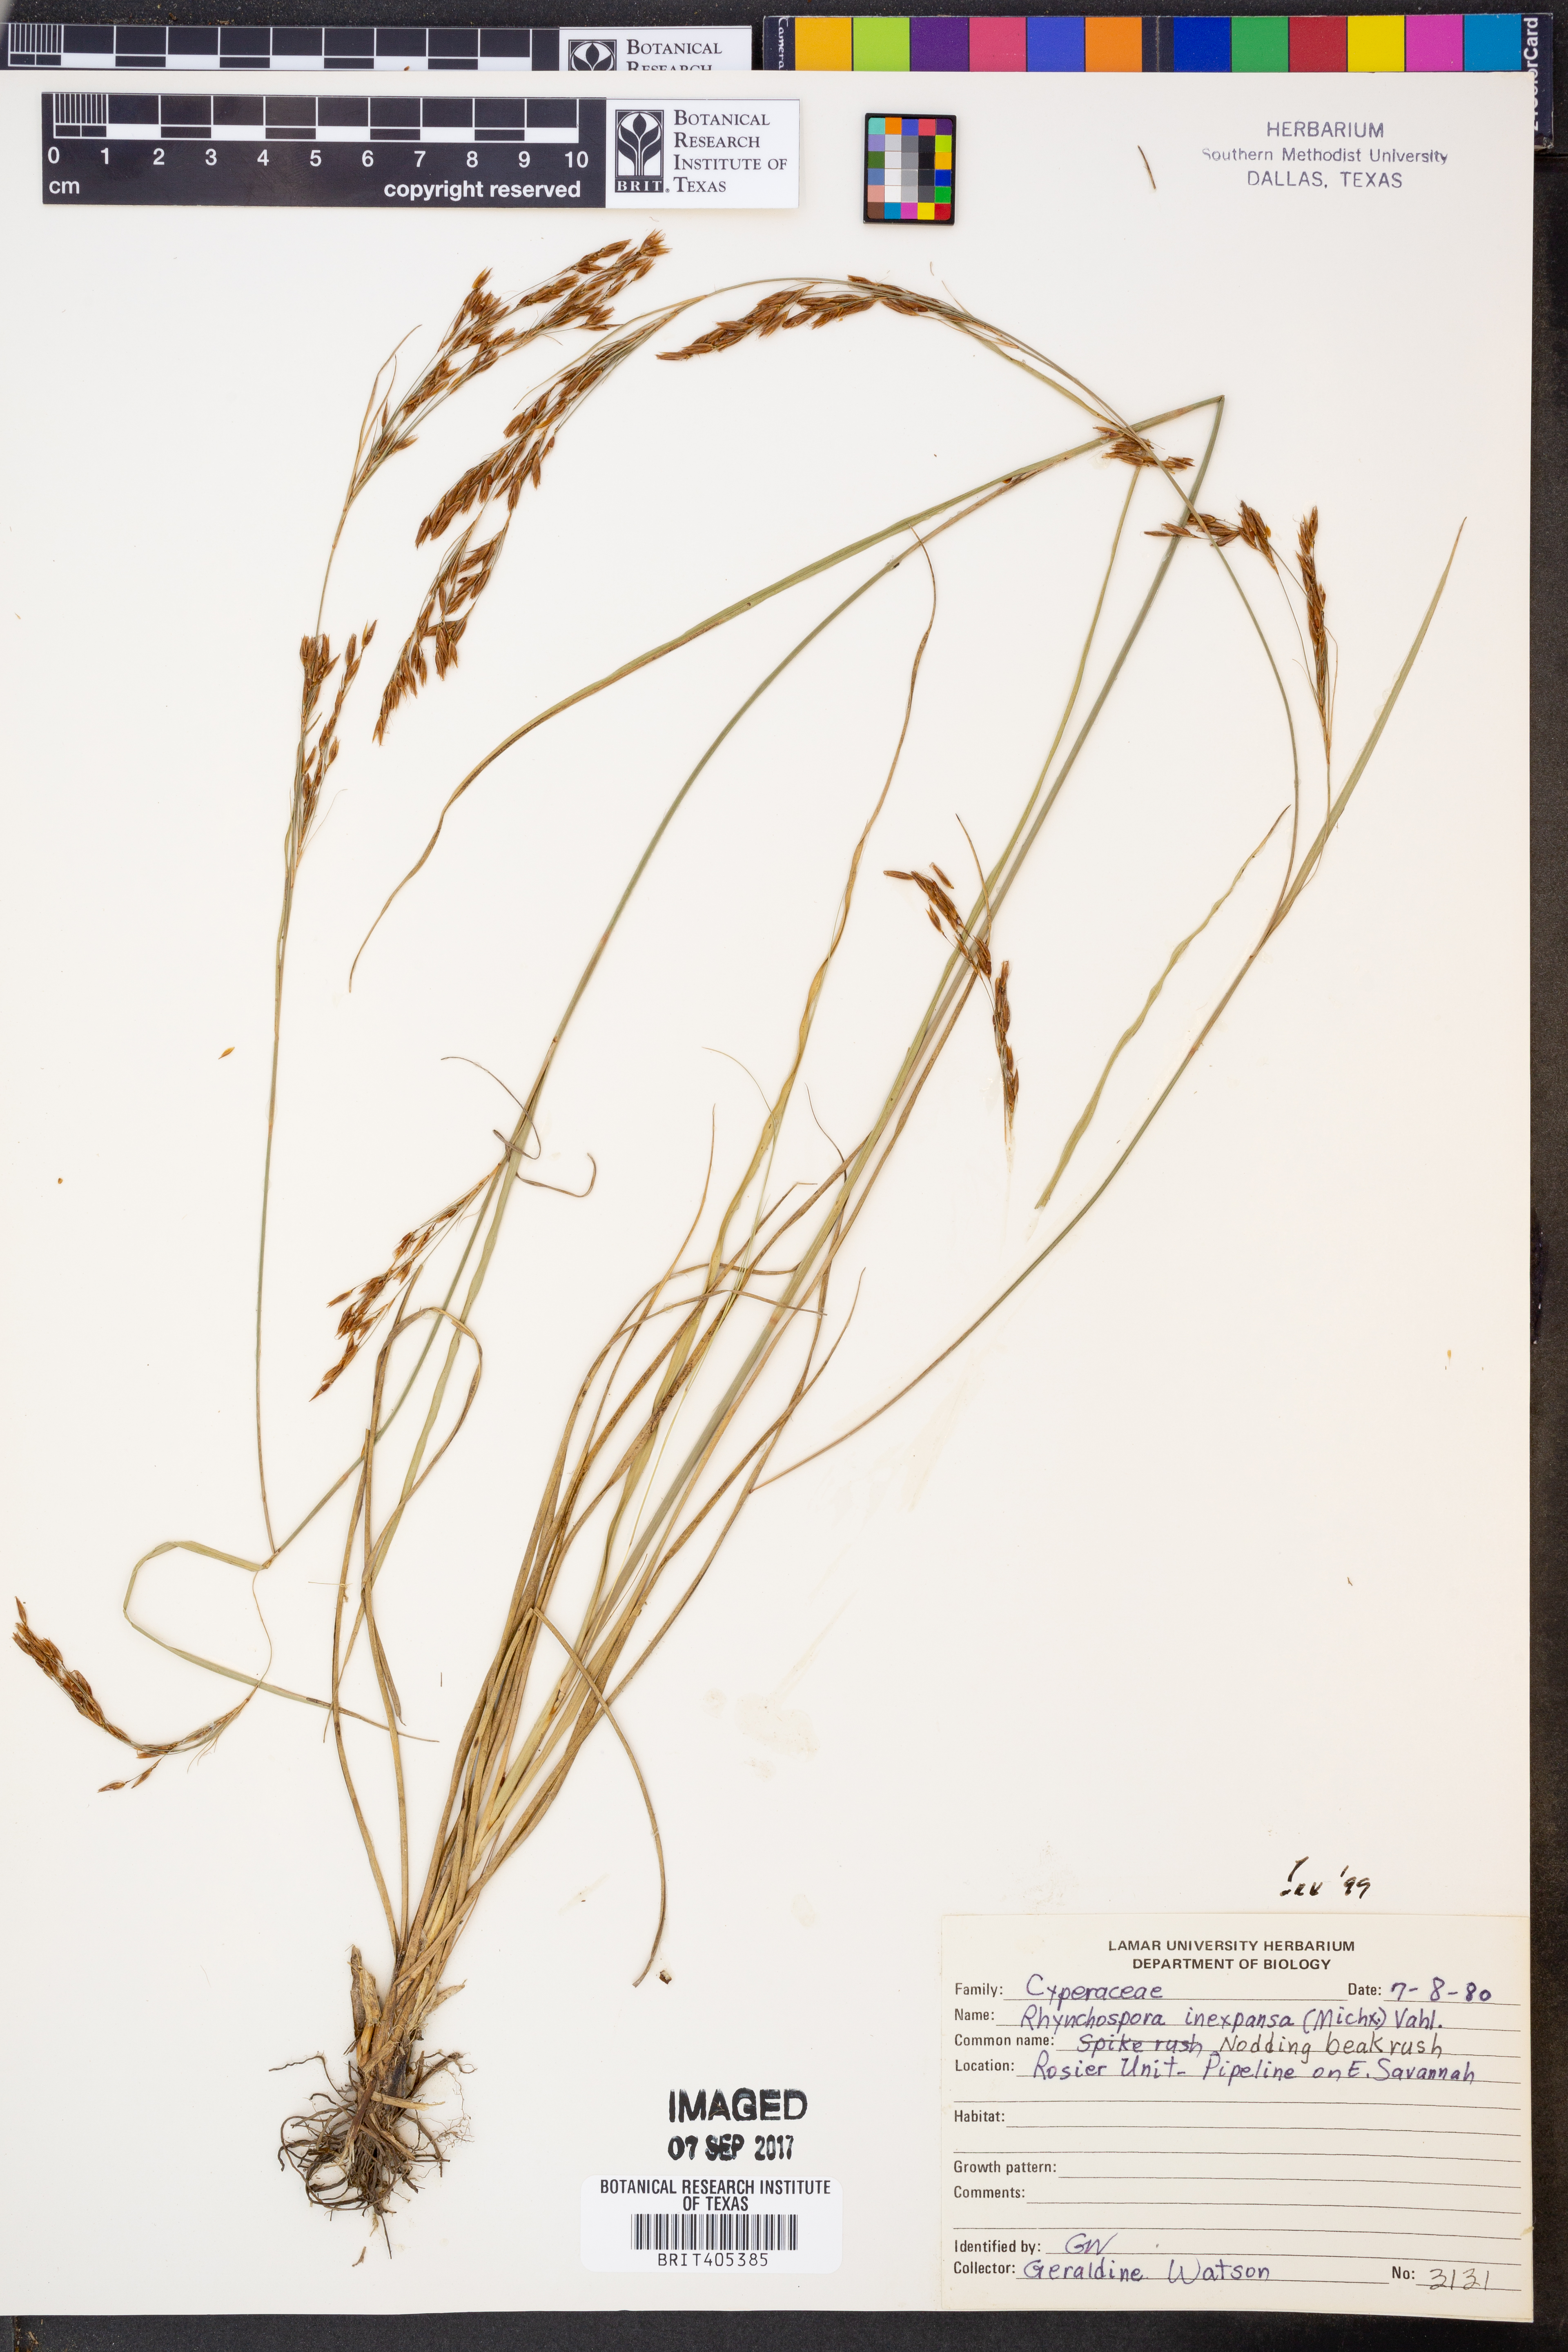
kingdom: Plantae
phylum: Tracheophyta
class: Liliopsida
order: Poales
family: Cyperaceae
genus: Rhynchospora
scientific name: Rhynchospora inexpansa
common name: Nodding beaksedge
